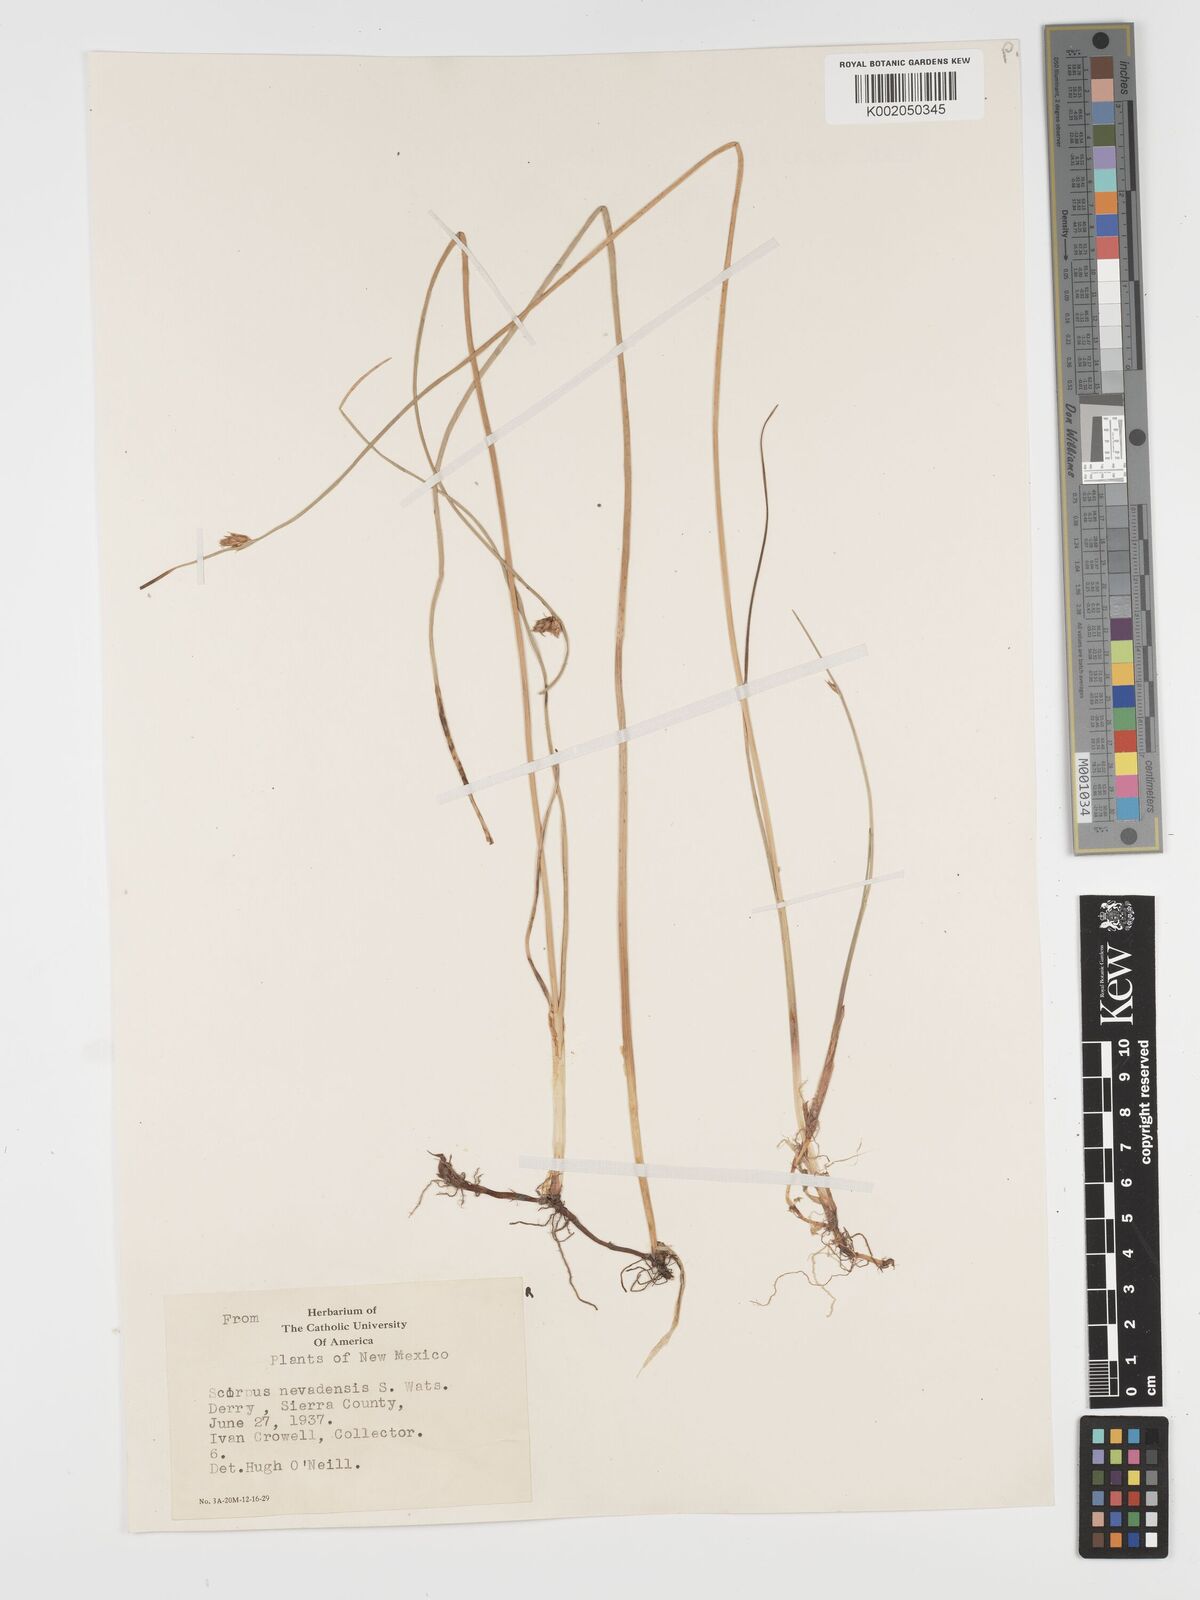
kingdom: Plantae
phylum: Tracheophyta
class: Liliopsida
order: Poales
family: Cyperaceae
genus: Amphiscirpus
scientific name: Amphiscirpus nevadensis
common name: Nevada bulrush
